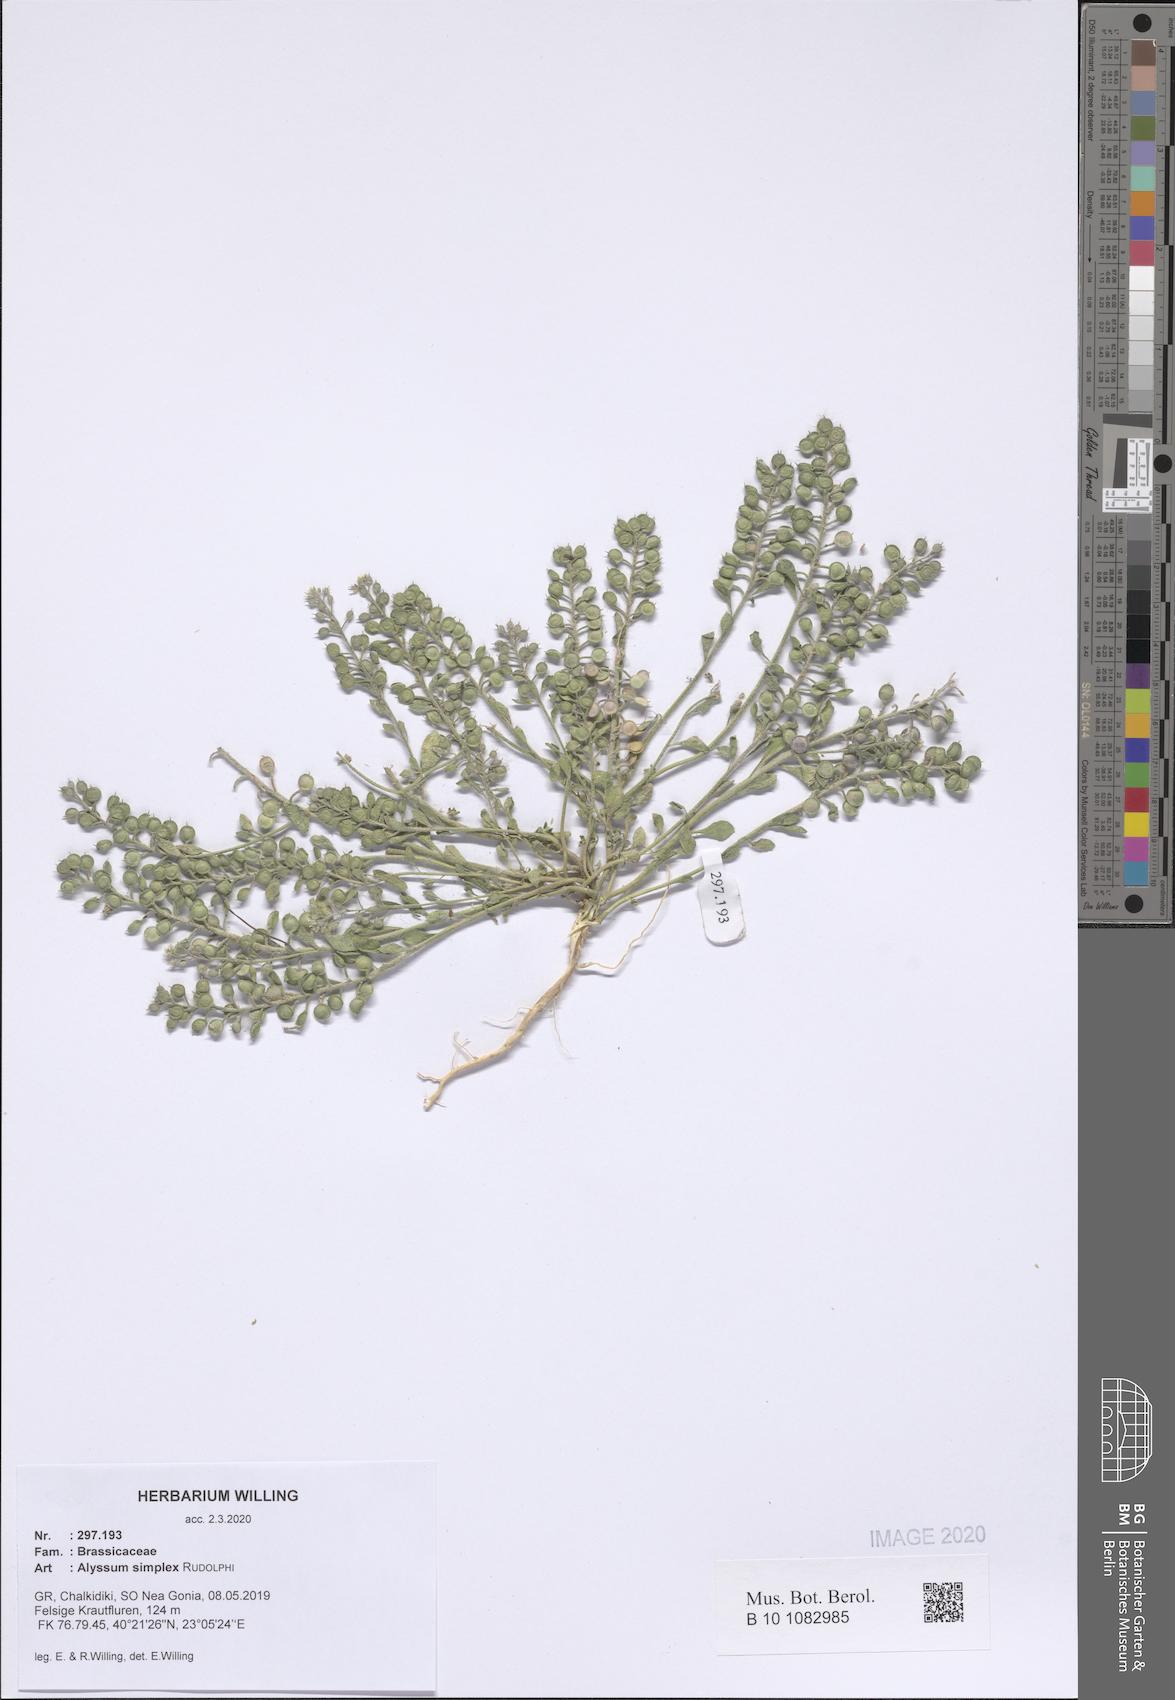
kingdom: Plantae
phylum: Tracheophyta
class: Magnoliopsida
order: Brassicales
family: Brassicaceae
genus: Alyssum
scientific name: Alyssum simplex
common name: Alyssum
